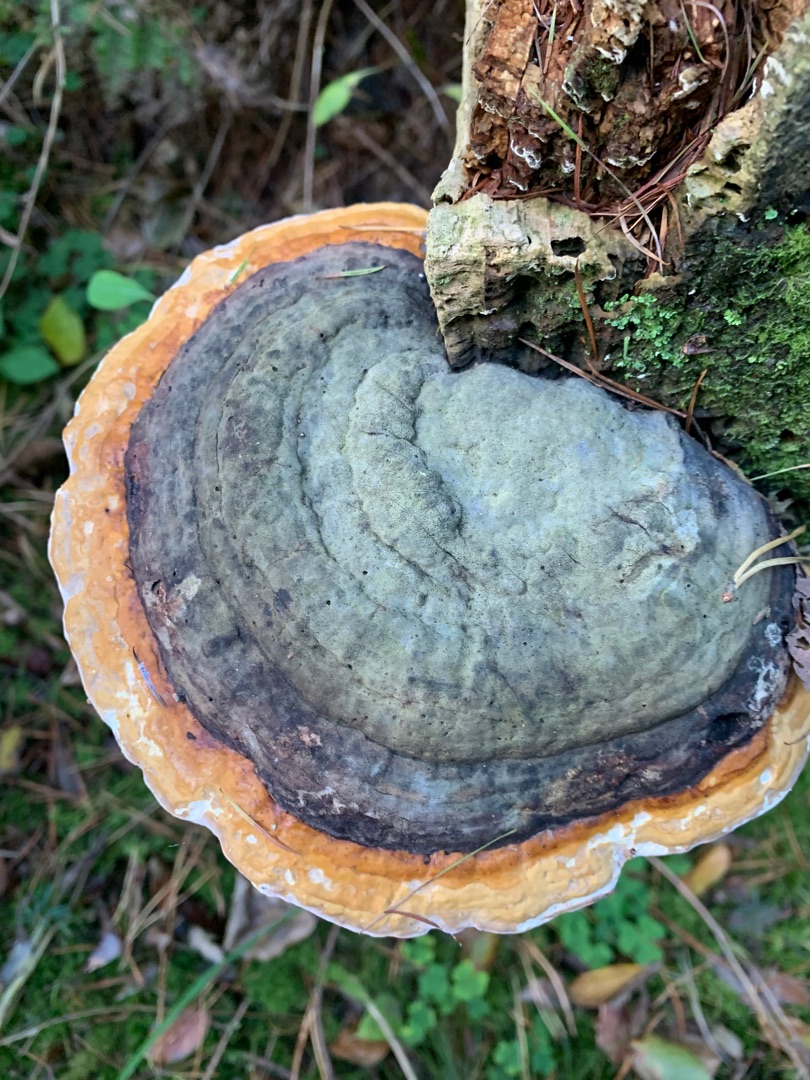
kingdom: Fungi
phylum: Basidiomycota
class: Agaricomycetes
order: Polyporales
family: Fomitopsidaceae
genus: Fomitopsis
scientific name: Fomitopsis pinicola
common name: Randbæltet hovporesvamp
